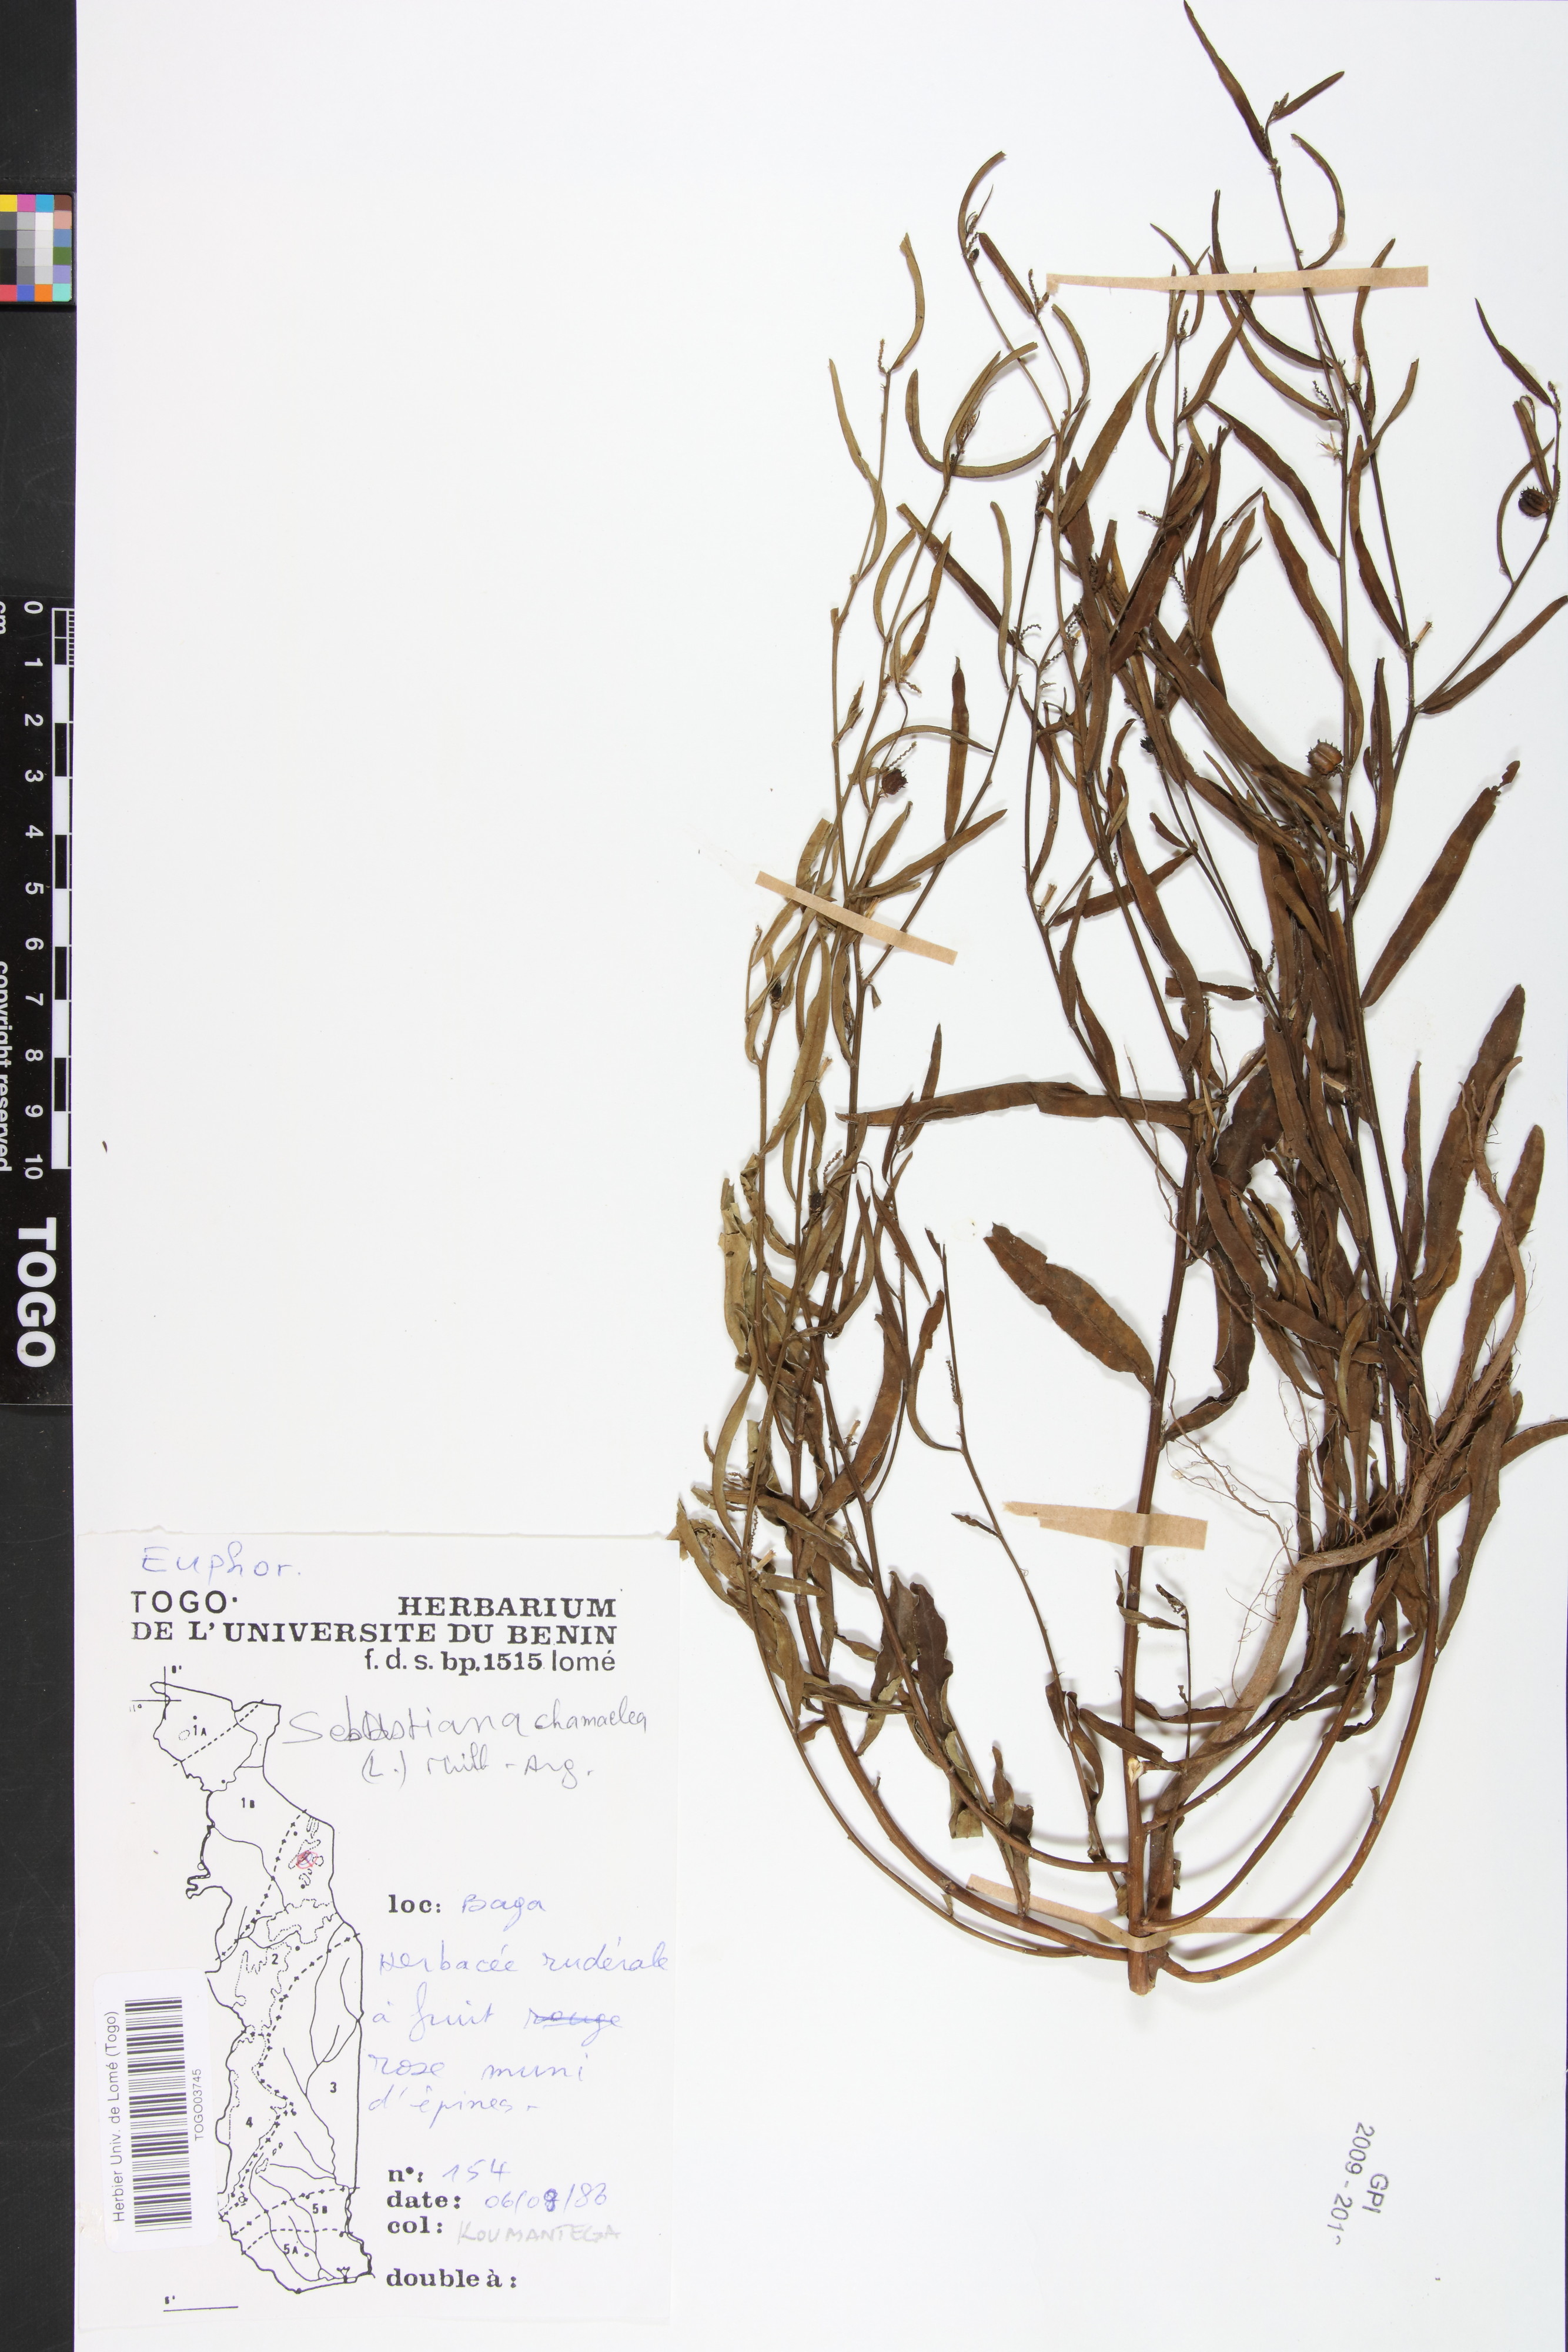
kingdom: Plantae
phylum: Tracheophyta
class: Magnoliopsida
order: Malpighiales
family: Euphorbiaceae
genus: Microstachys
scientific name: Microstachys chamaelea
